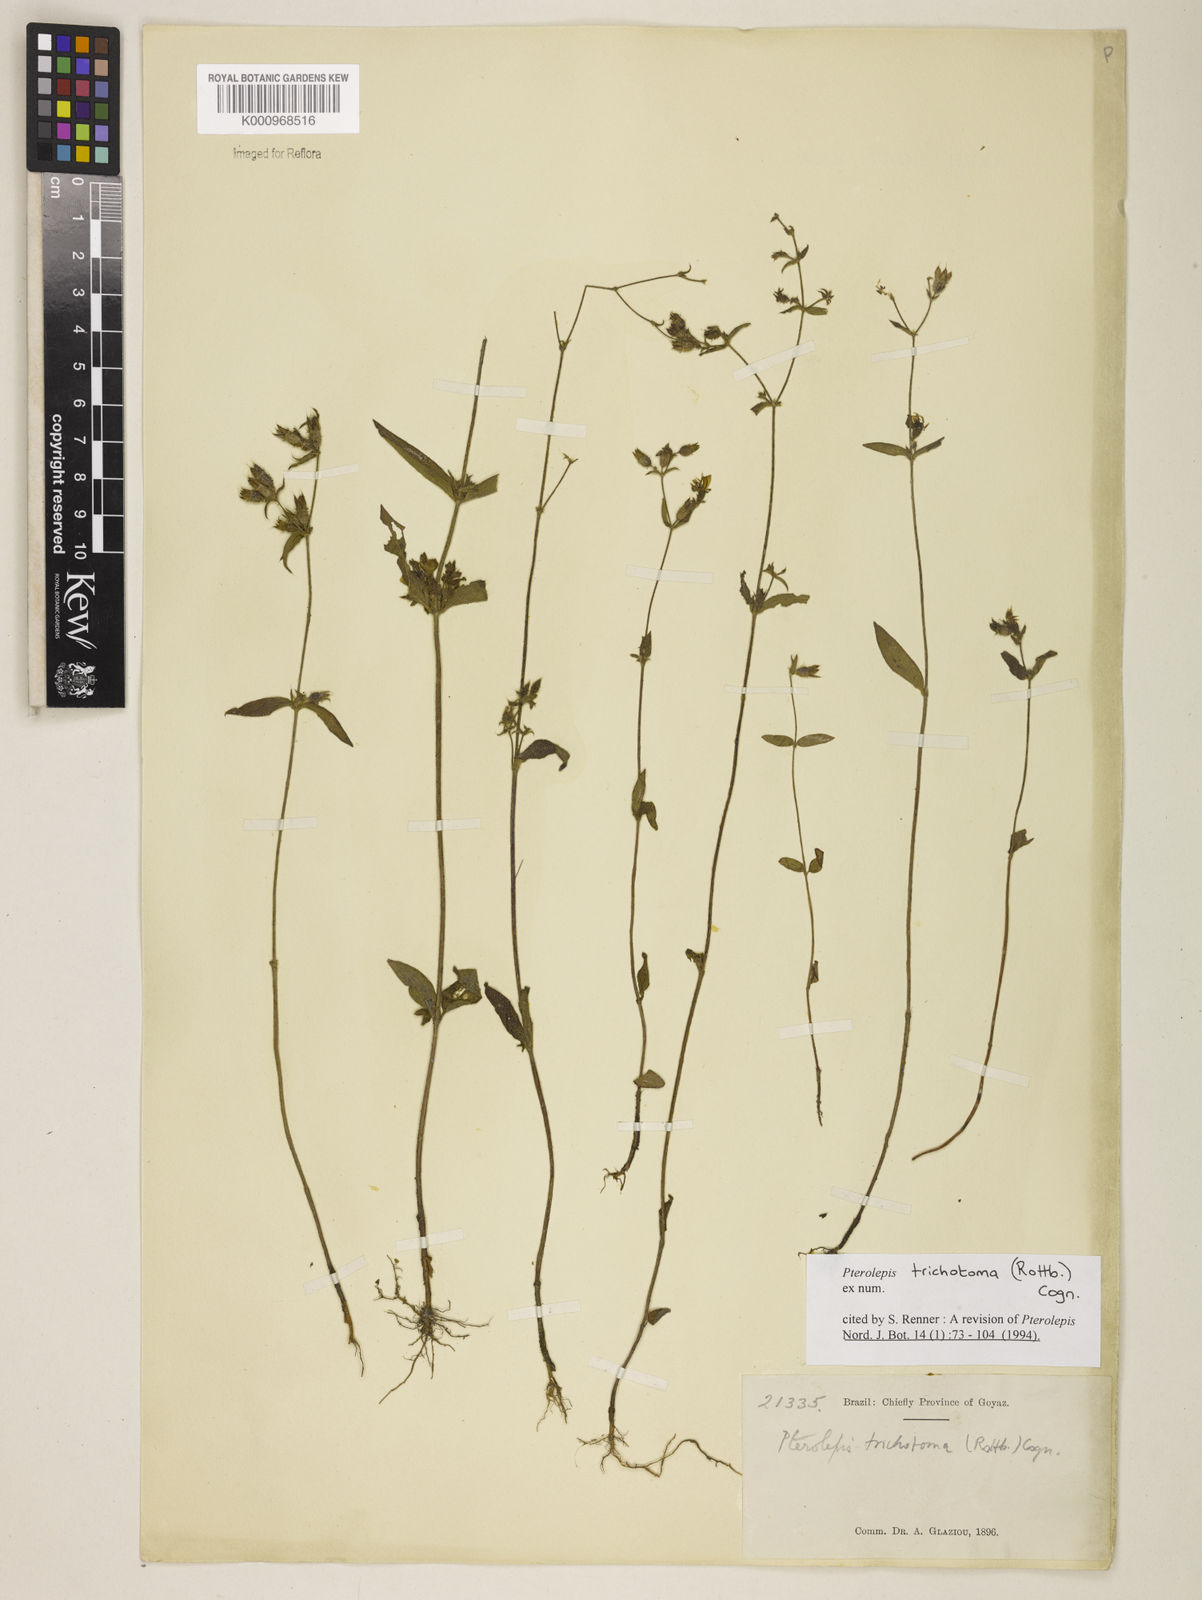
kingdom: Plantae
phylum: Tracheophyta
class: Magnoliopsida
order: Myrtales
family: Melastomataceae
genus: Pterolepis
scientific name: Pterolepis trichotoma
